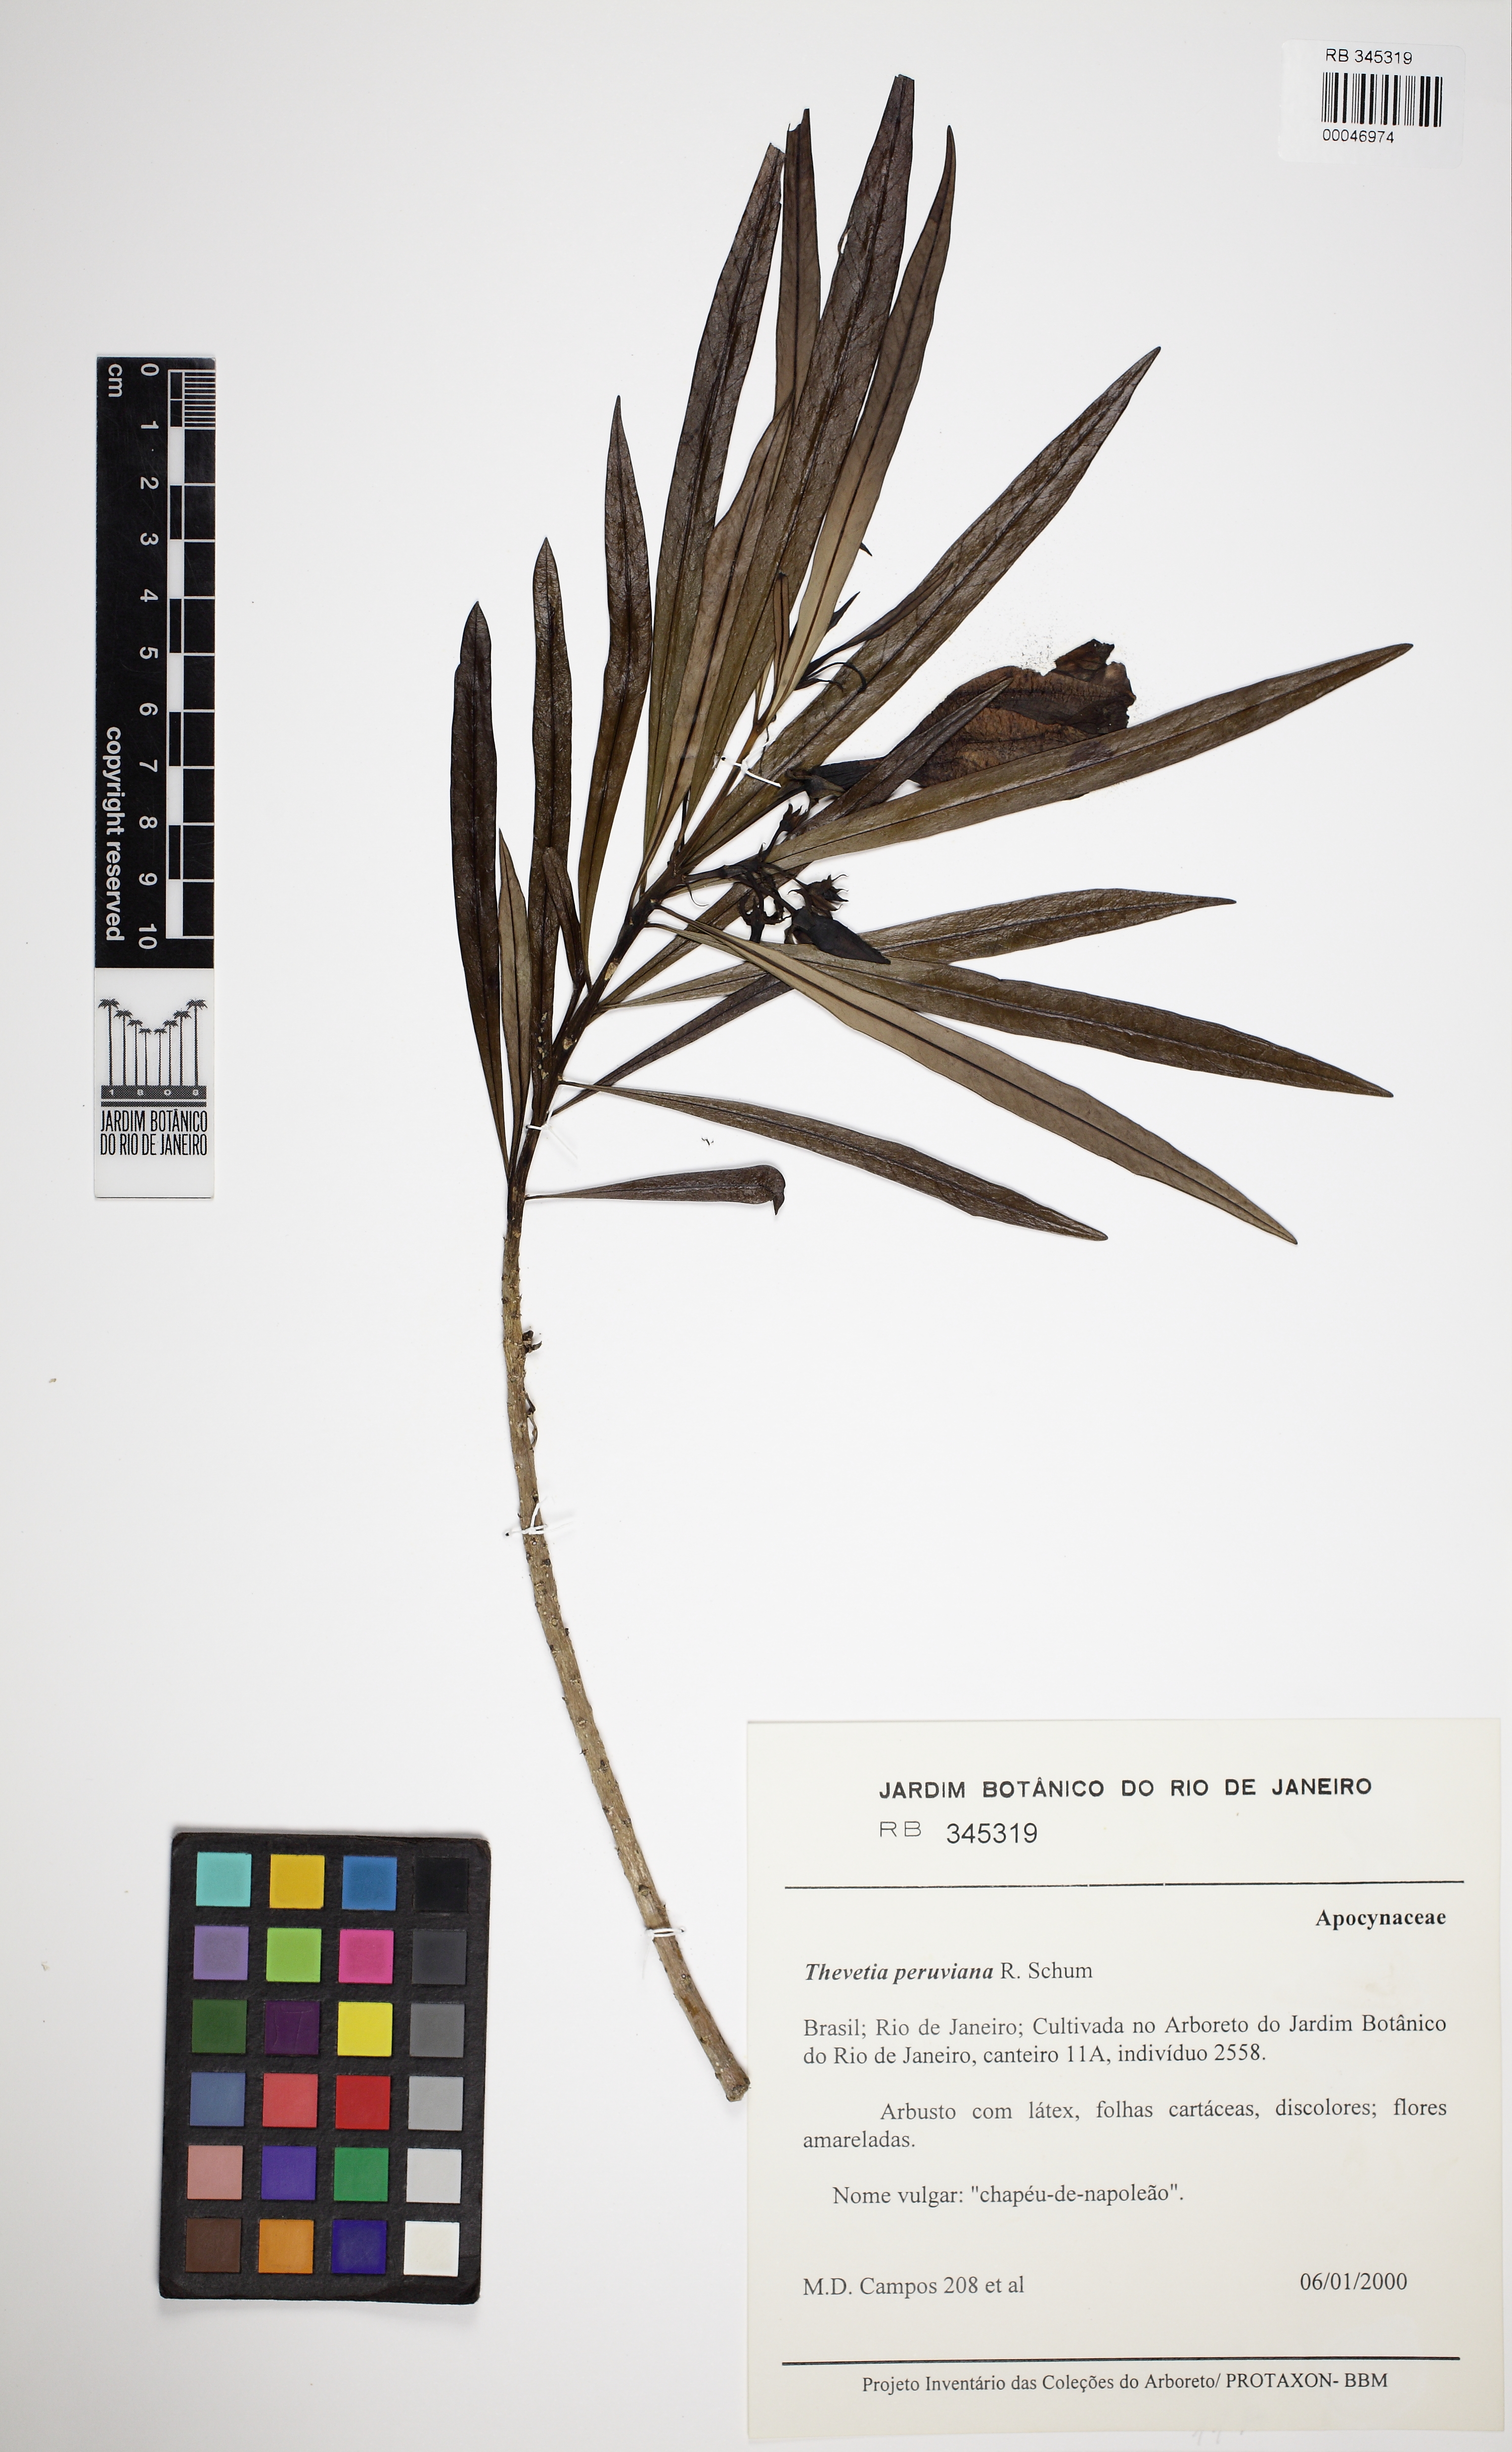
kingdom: Plantae
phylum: Tracheophyta
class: Magnoliopsida
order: Gentianales
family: Apocynaceae
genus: Cascabela
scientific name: Cascabela thevetia
